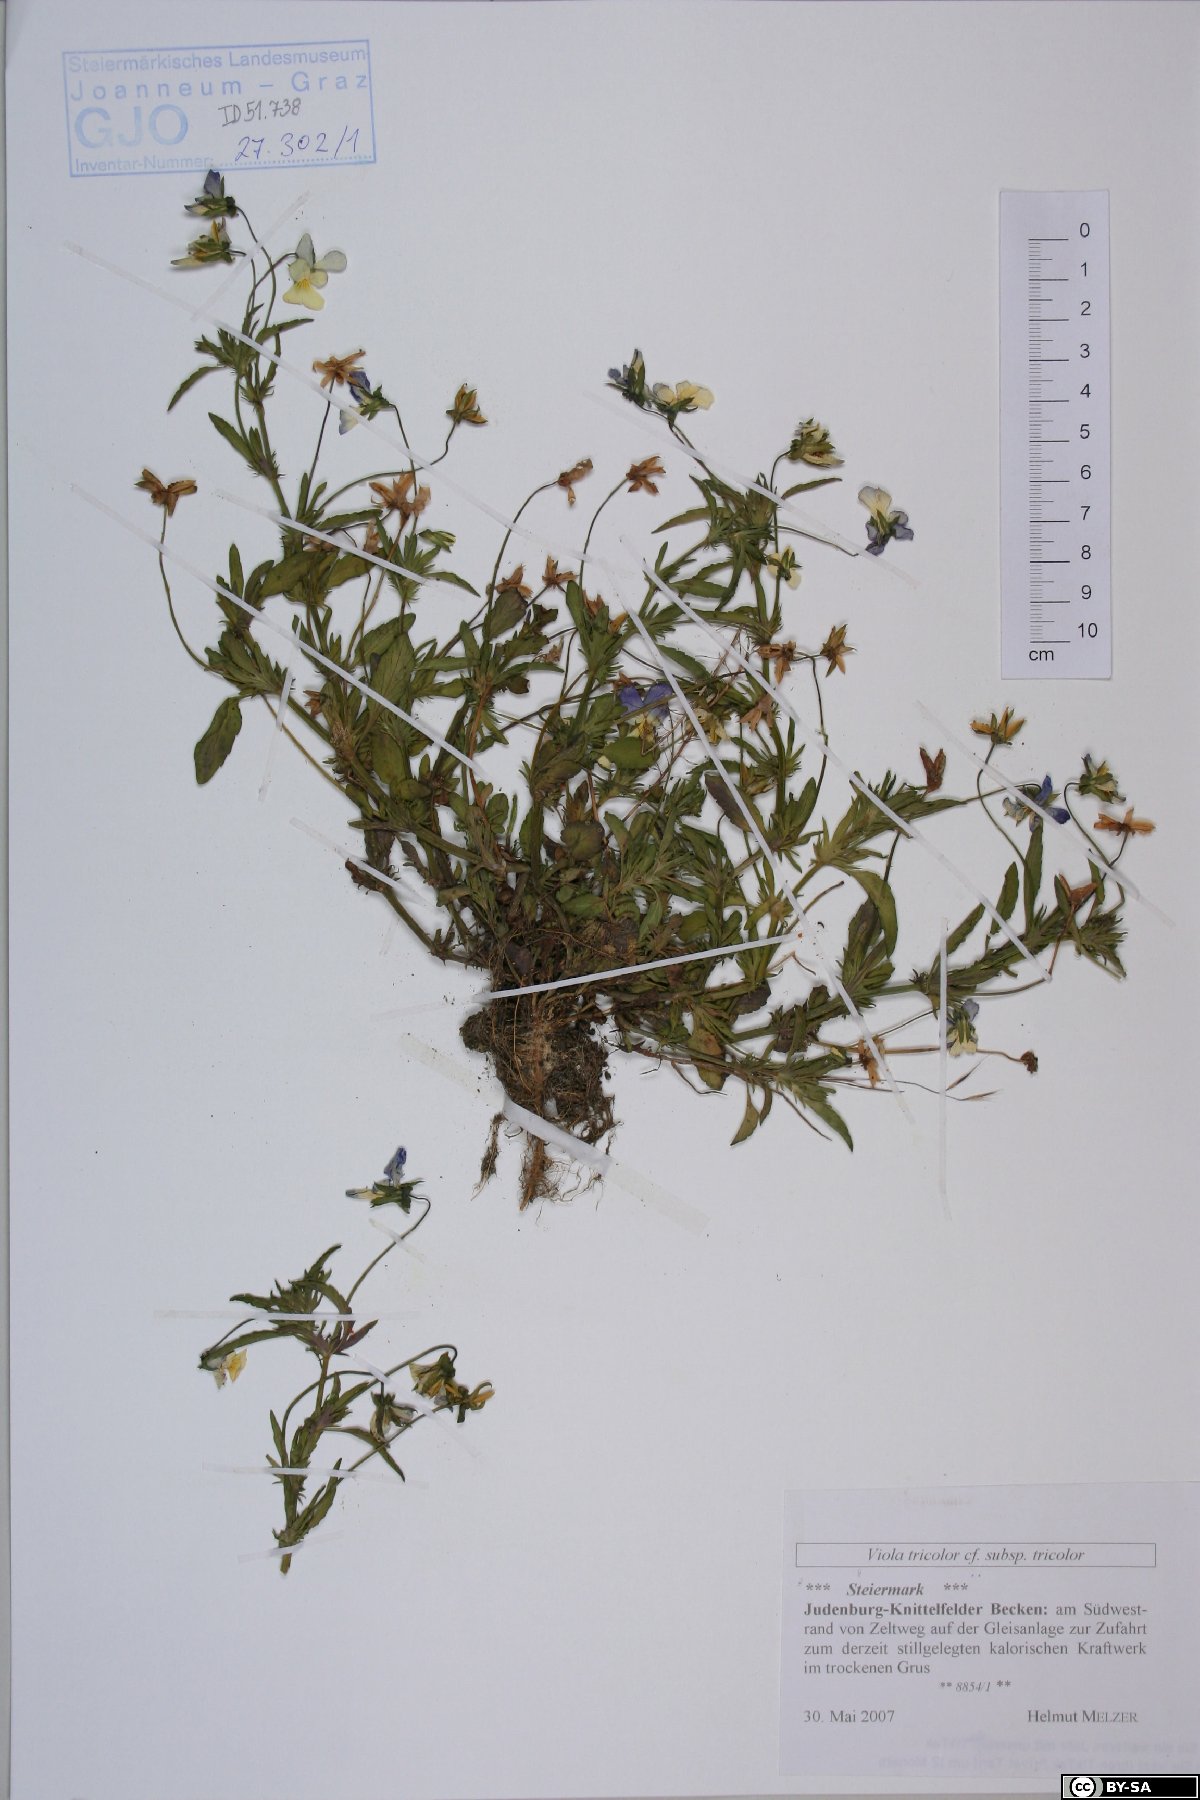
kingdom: Plantae
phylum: Tracheophyta
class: Magnoliopsida
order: Malpighiales
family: Violaceae
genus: Viola
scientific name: Viola tricolor
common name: Pansy
